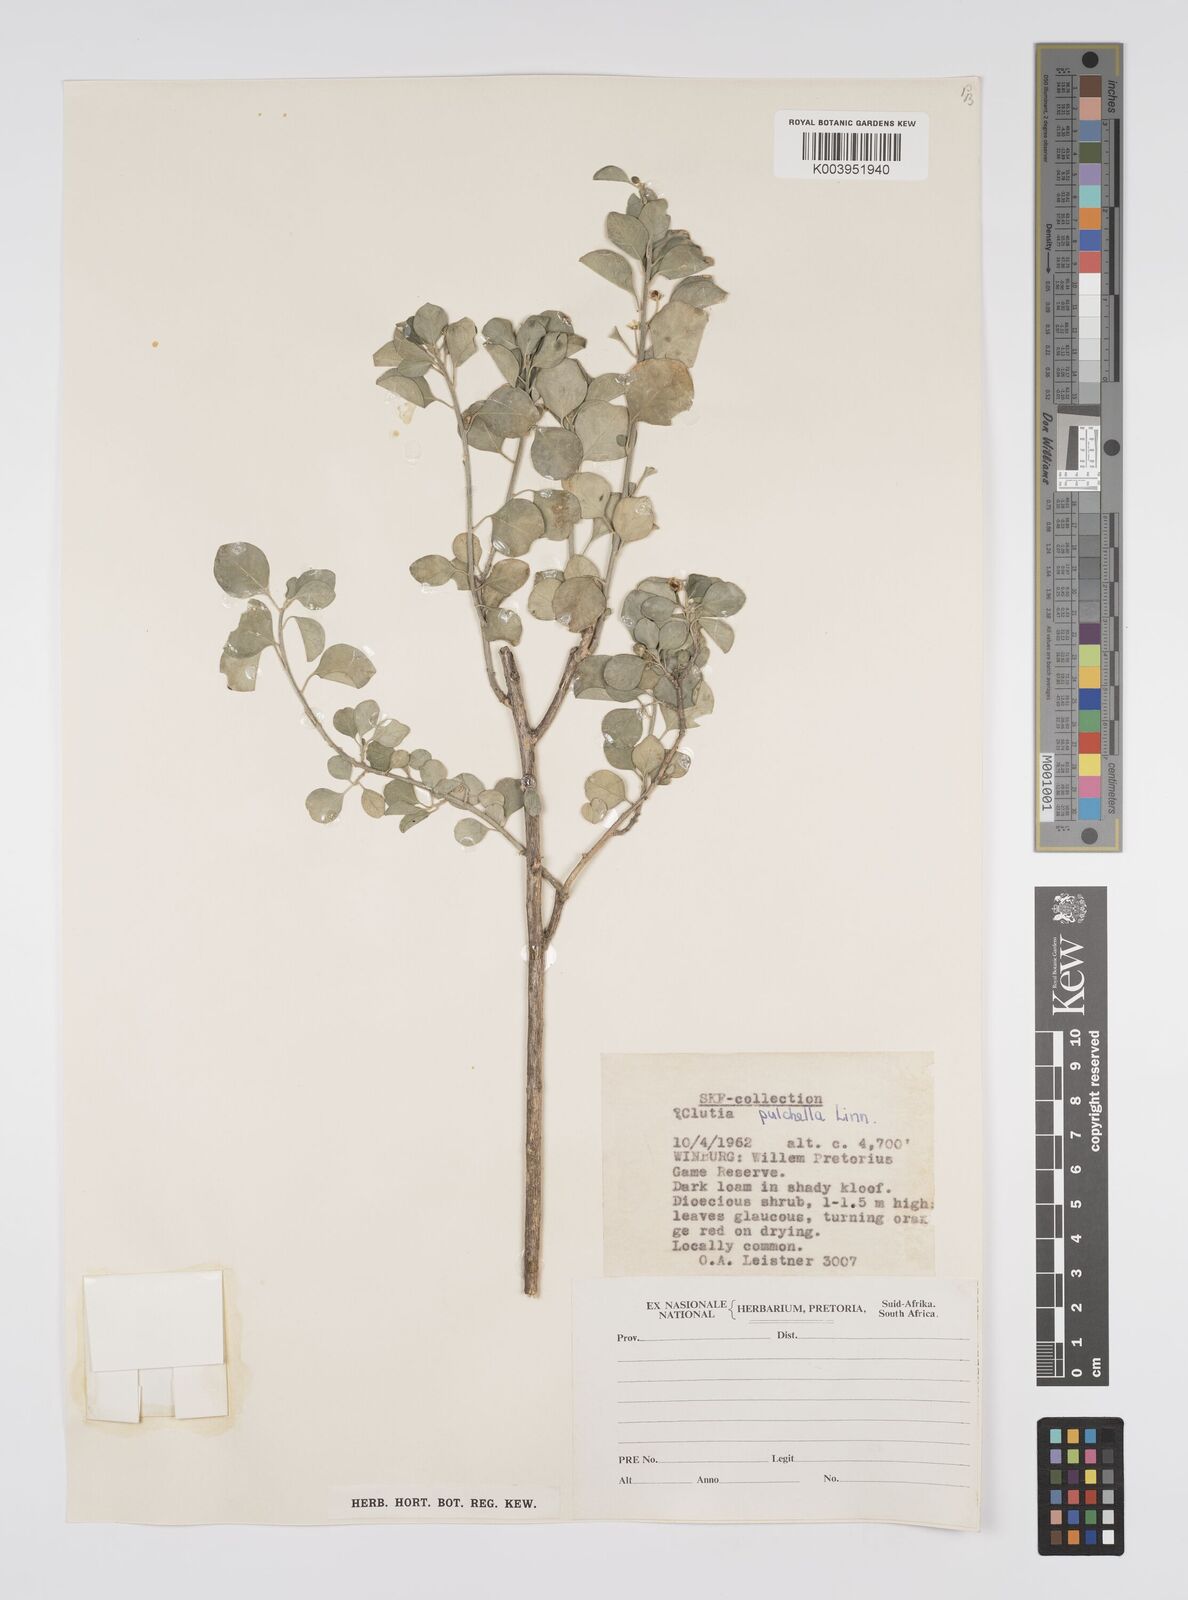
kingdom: Plantae
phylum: Tracheophyta
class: Magnoliopsida
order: Malpighiales
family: Peraceae
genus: Clutia
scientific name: Clutia pulchella
